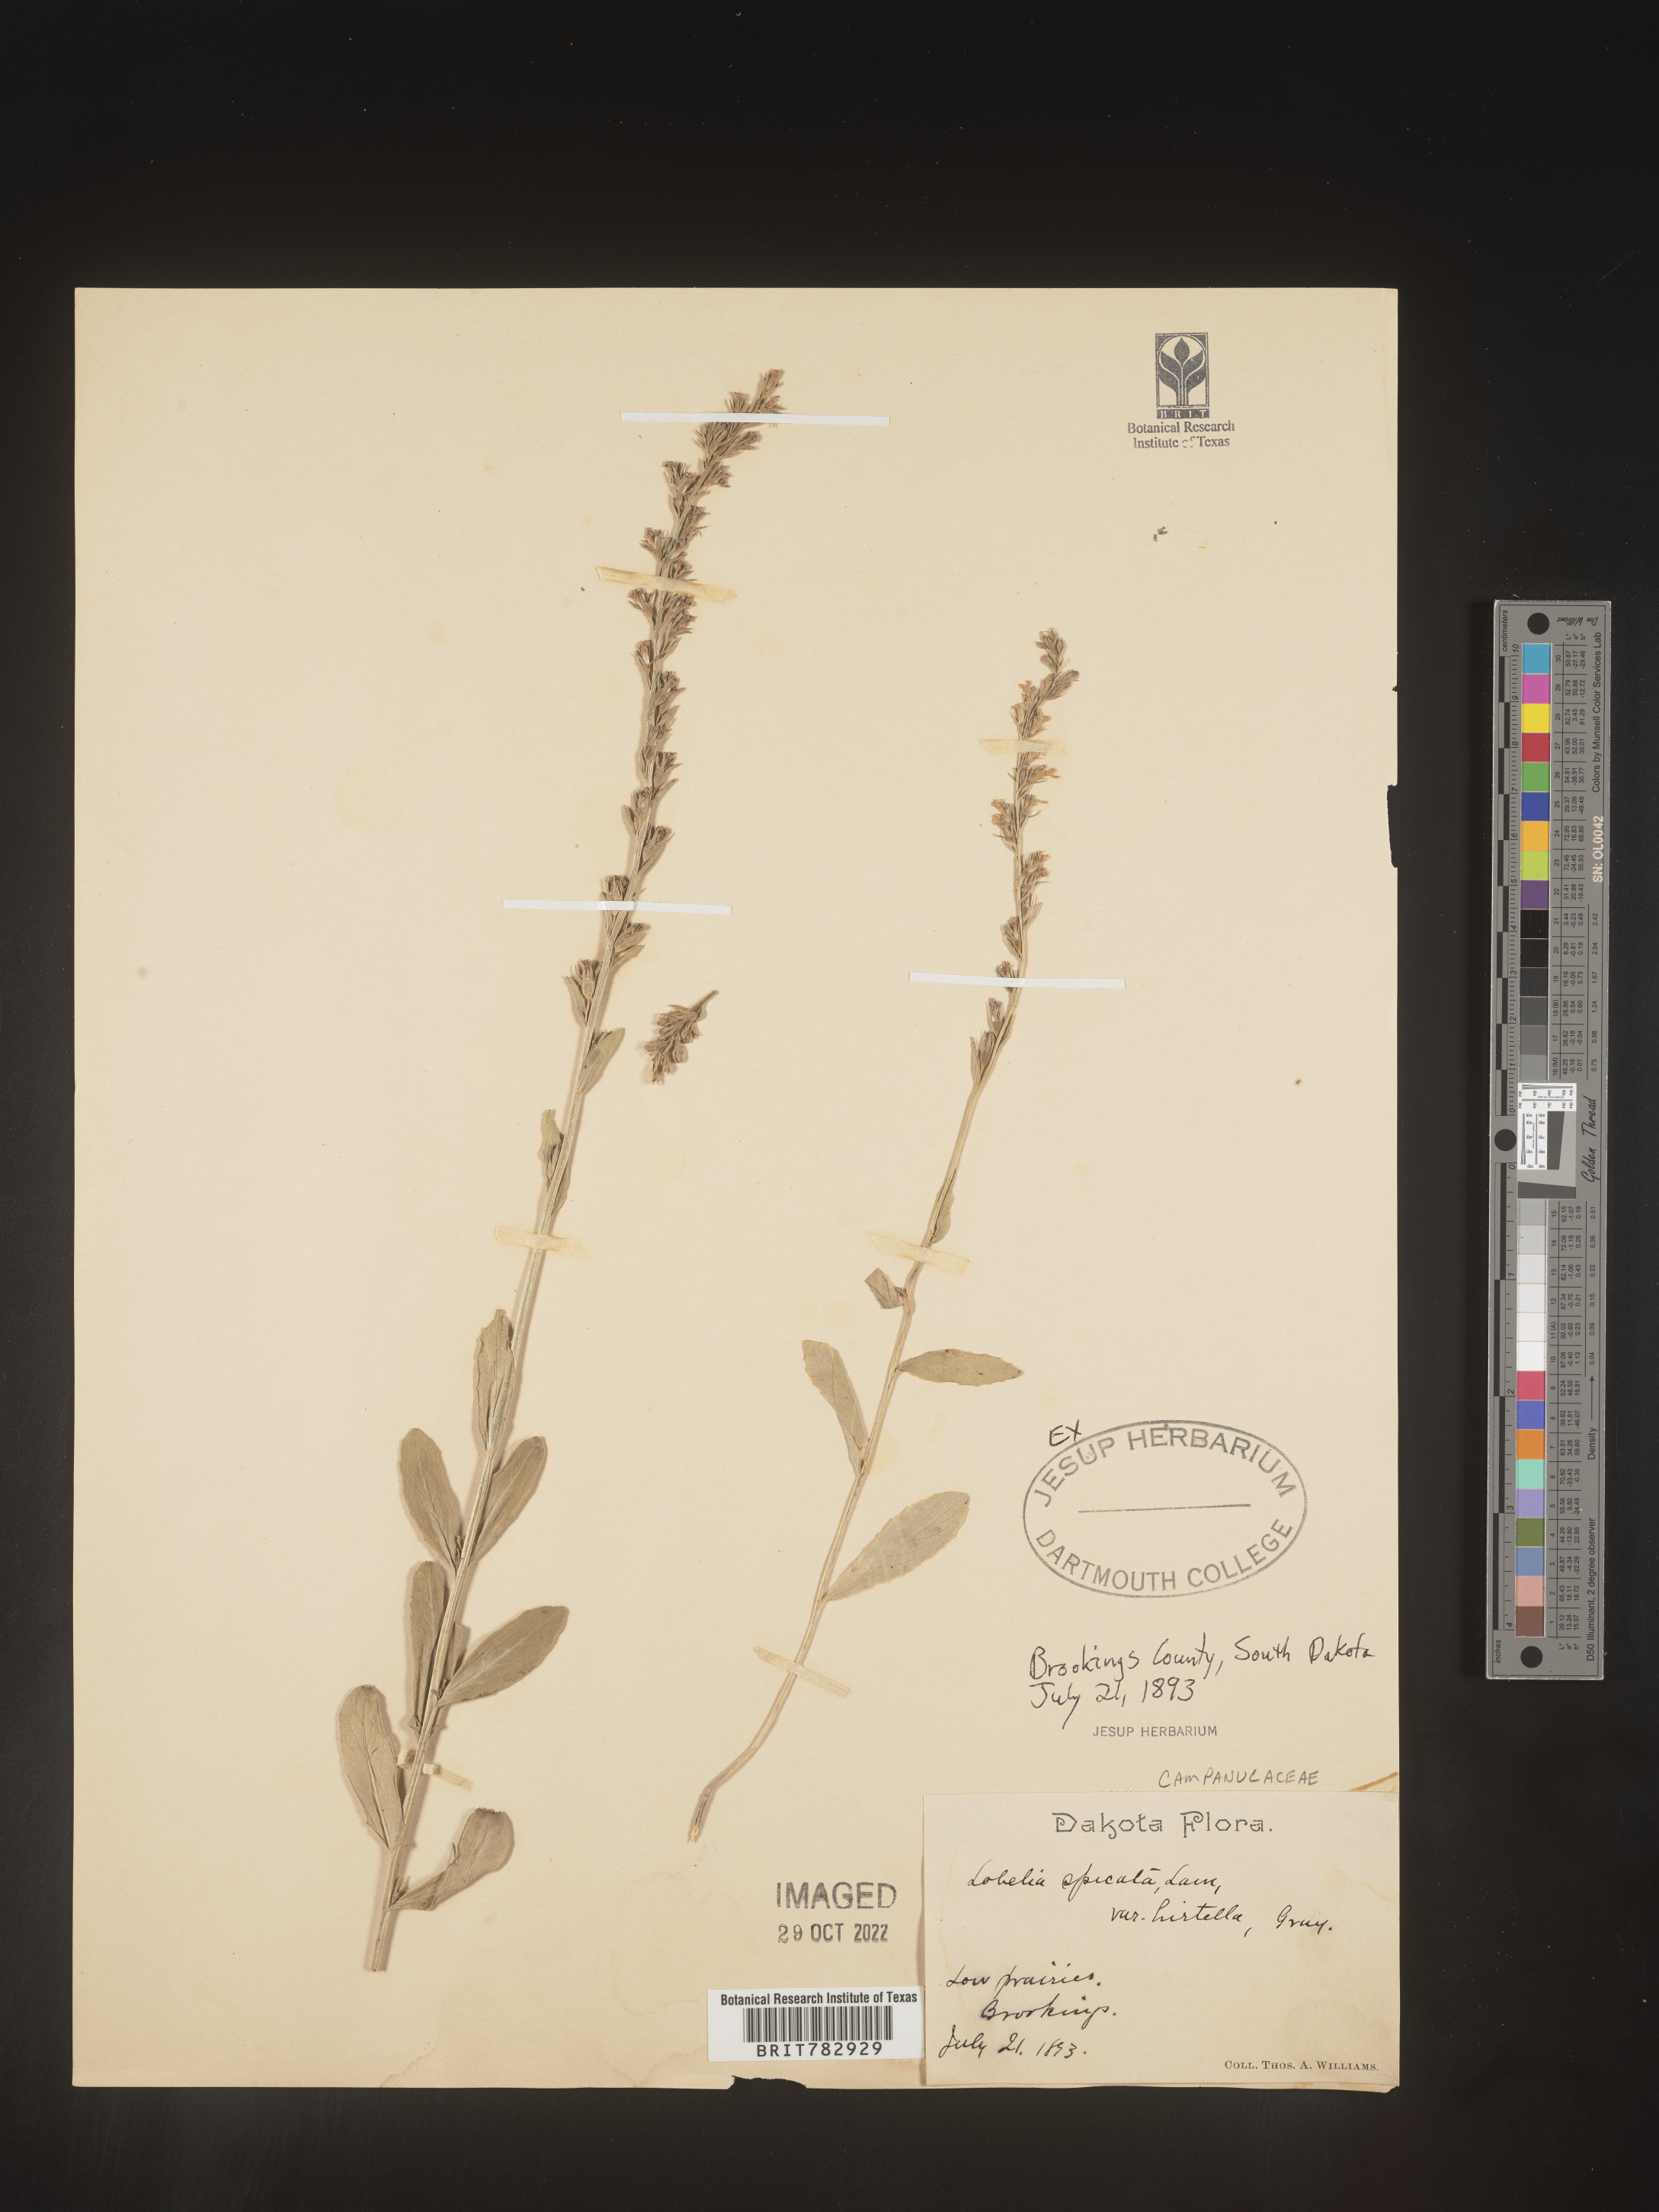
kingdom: Plantae
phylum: Tracheophyta
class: Magnoliopsida
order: Asterales
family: Campanulaceae
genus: Lobelia
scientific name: Lobelia spicata
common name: Pale-spike lobelia
